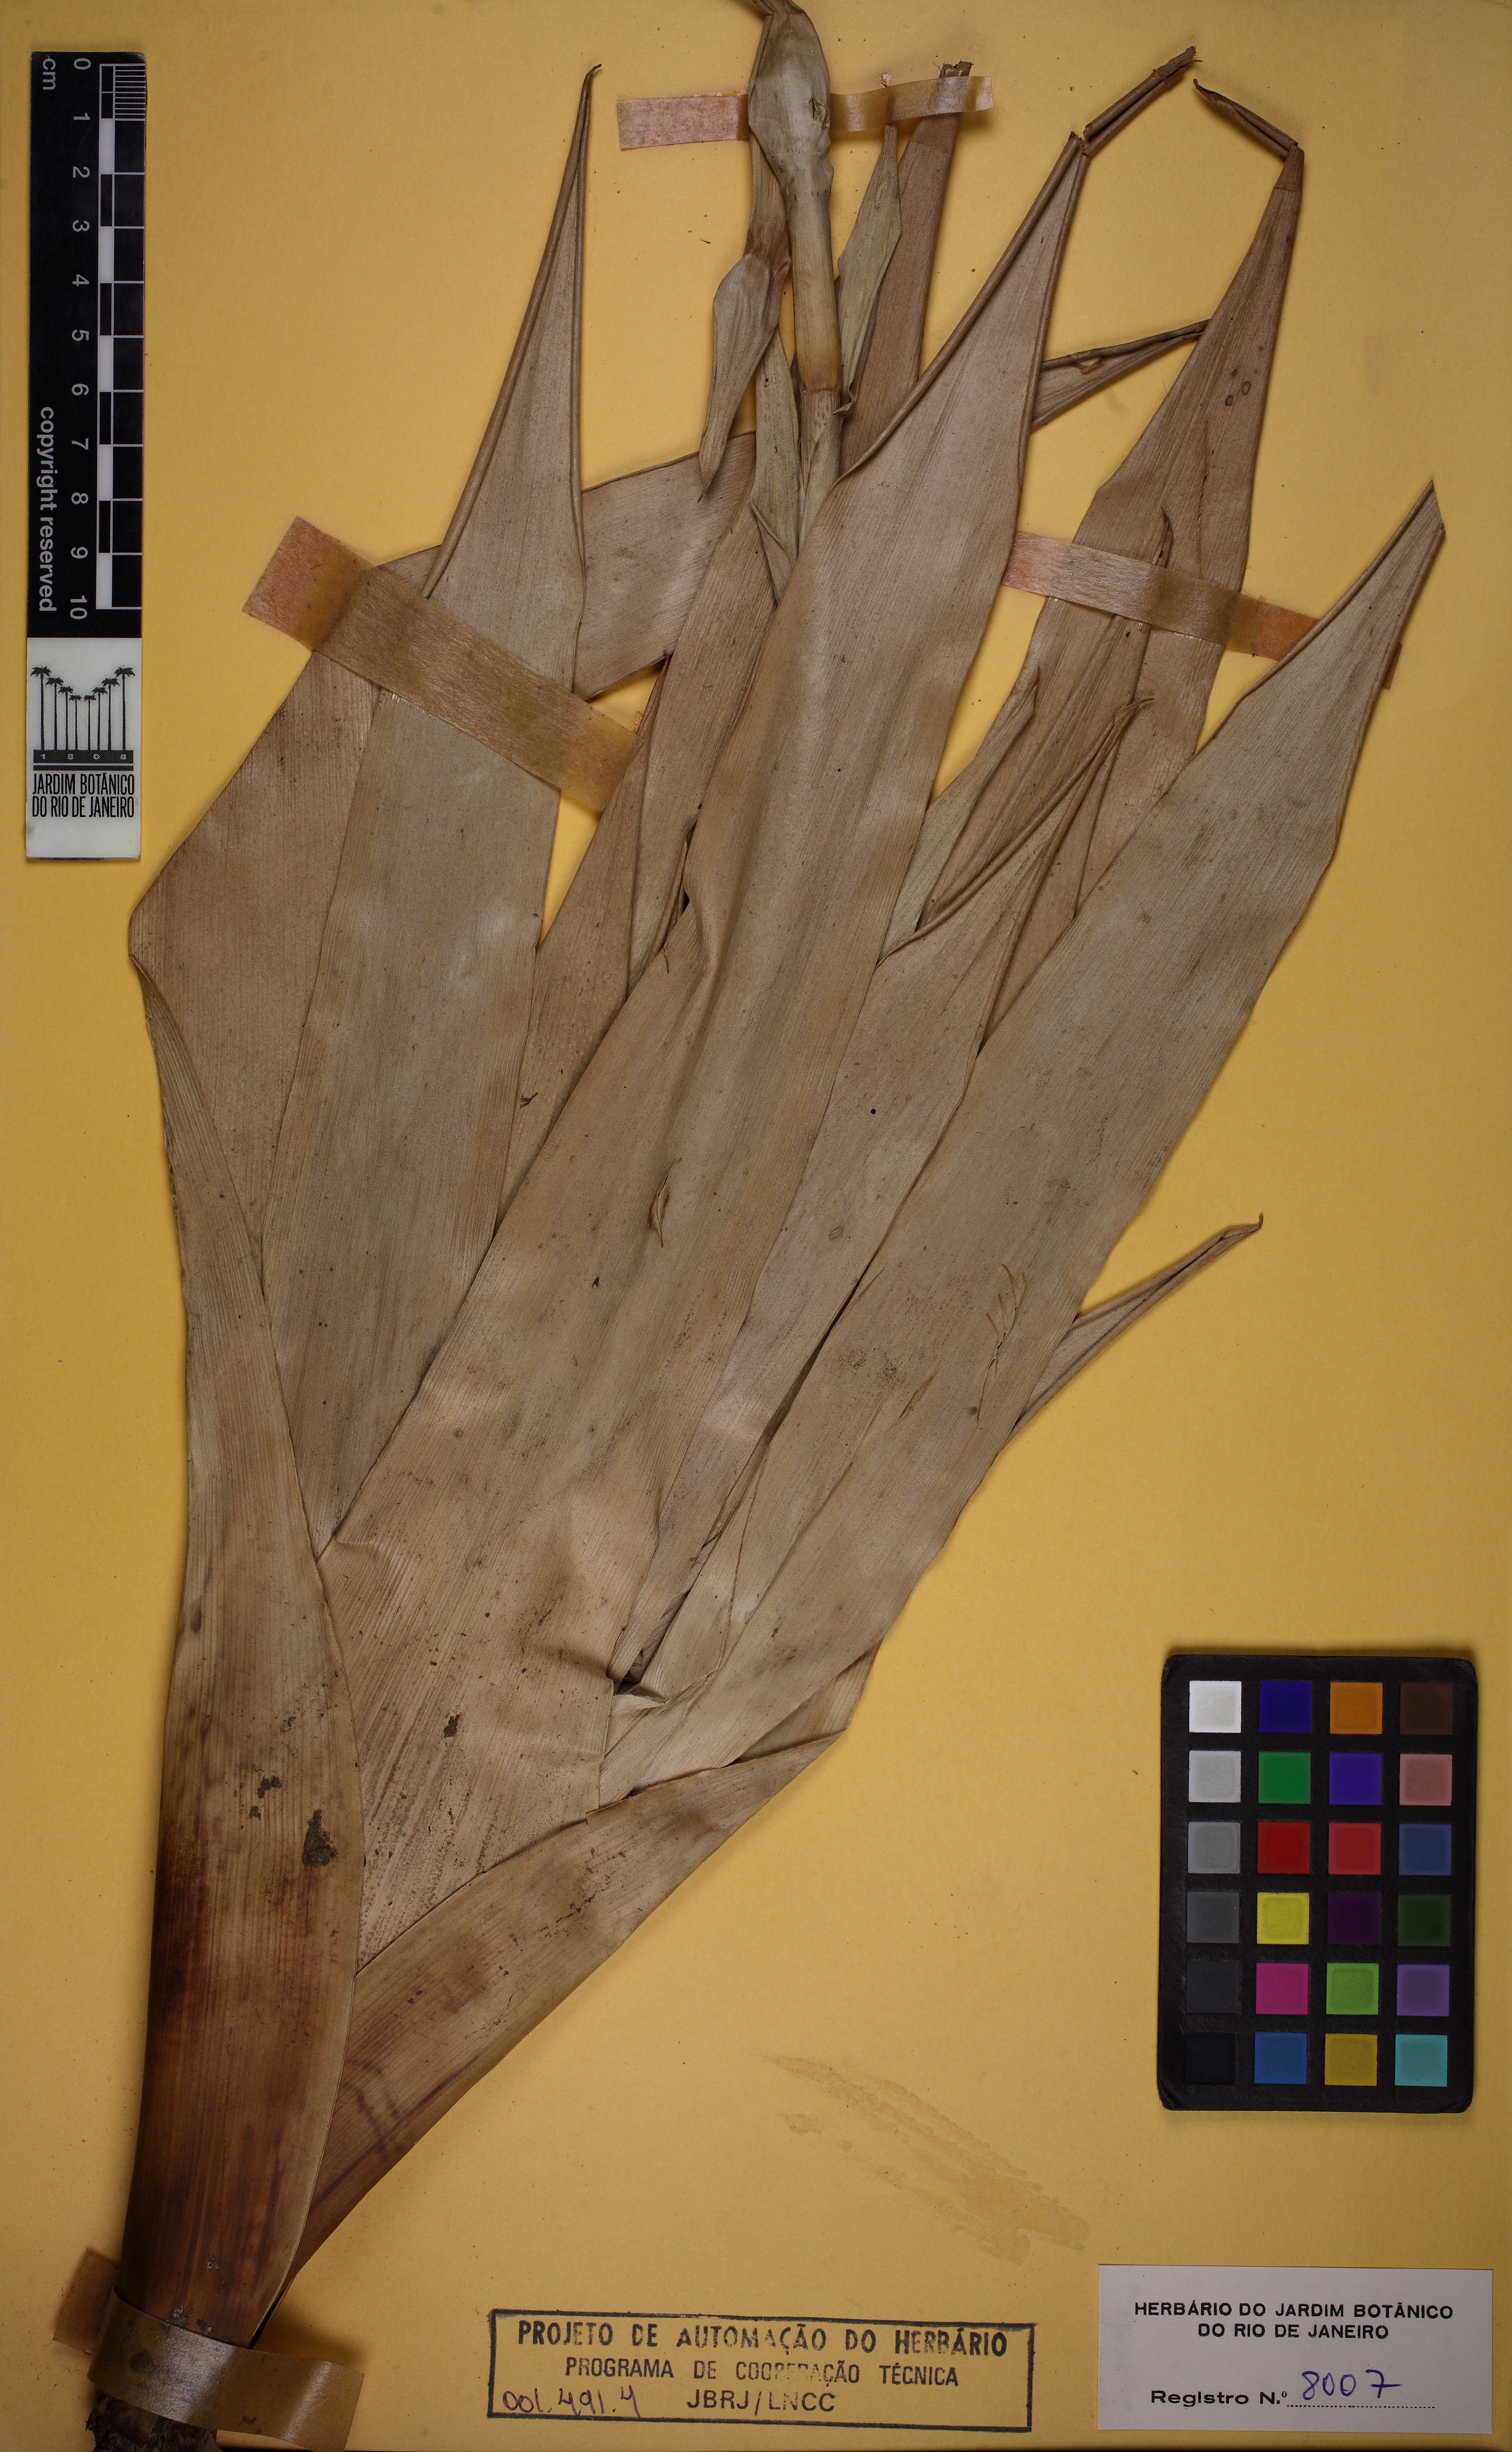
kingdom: Plantae
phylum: Tracheophyta
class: Liliopsida
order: Poales
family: Bromeliaceae
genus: Vriesea
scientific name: Vriesea neoglutinosa
